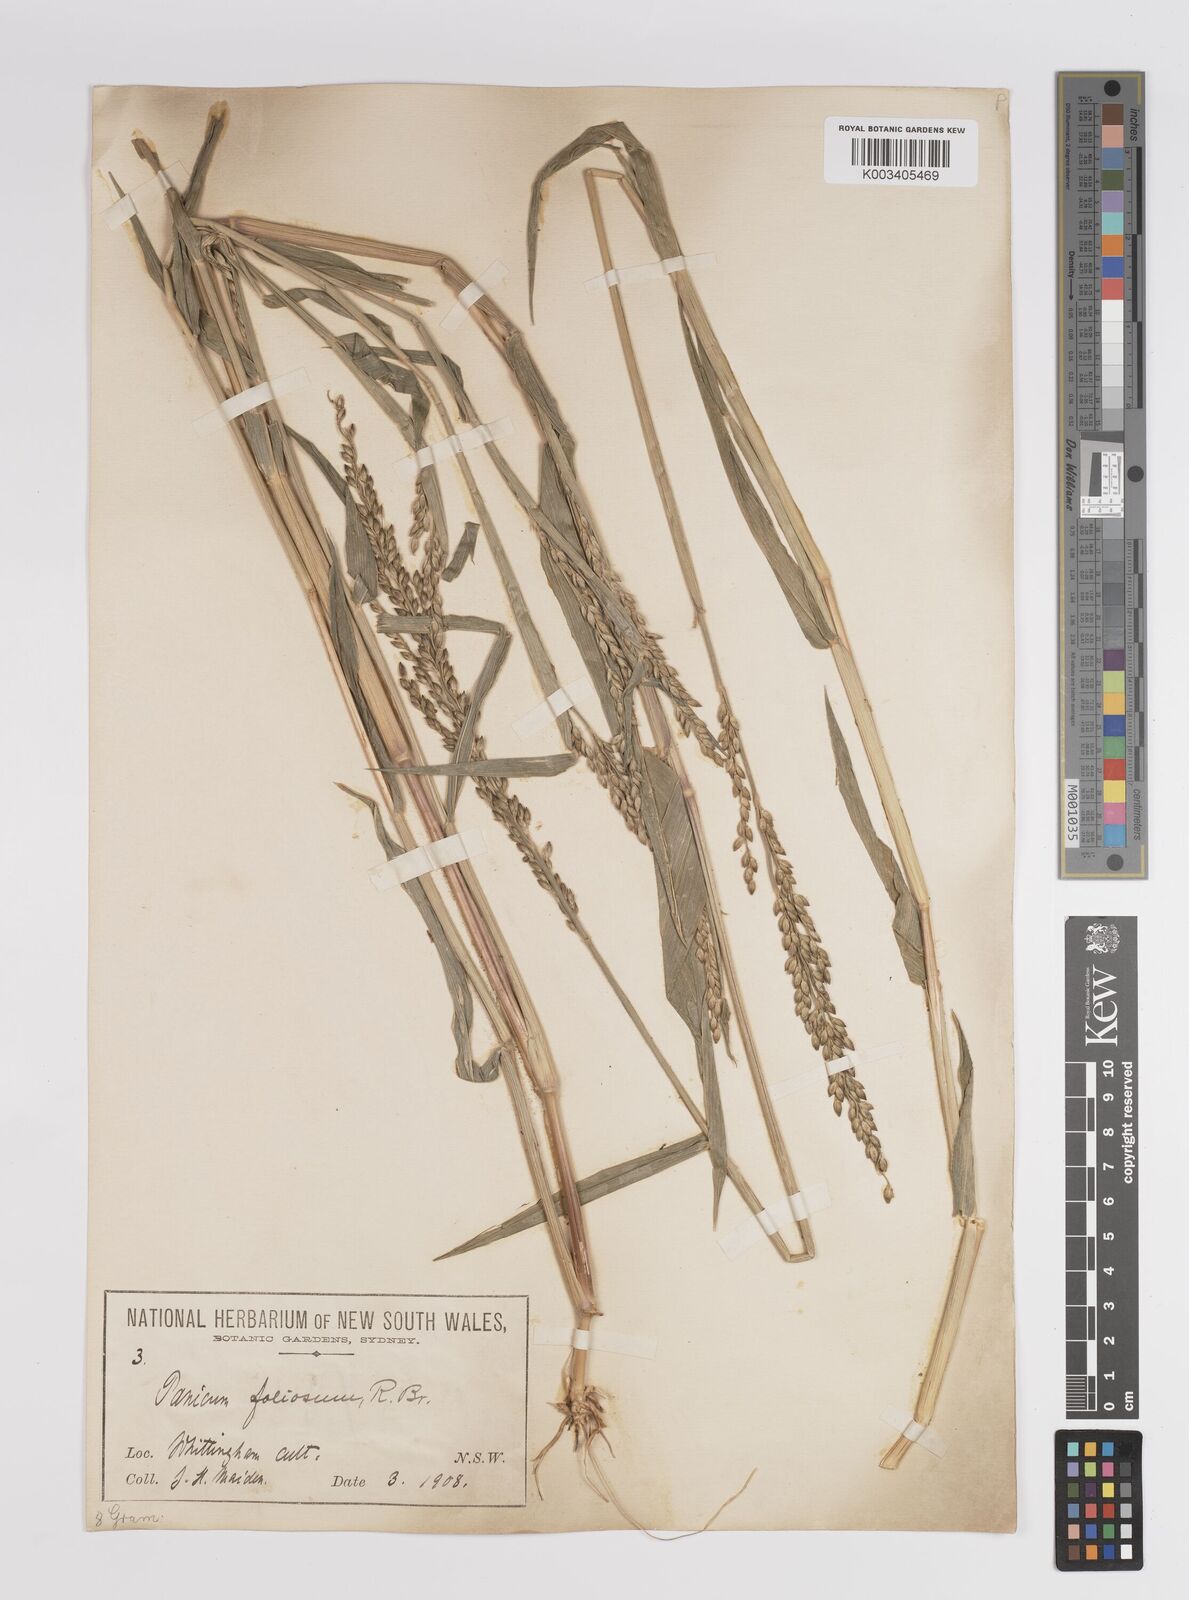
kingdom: Plantae
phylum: Tracheophyta
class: Liliopsida
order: Poales
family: Poaceae
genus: Urochloa
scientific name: Urochloa texana
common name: Texas millet
